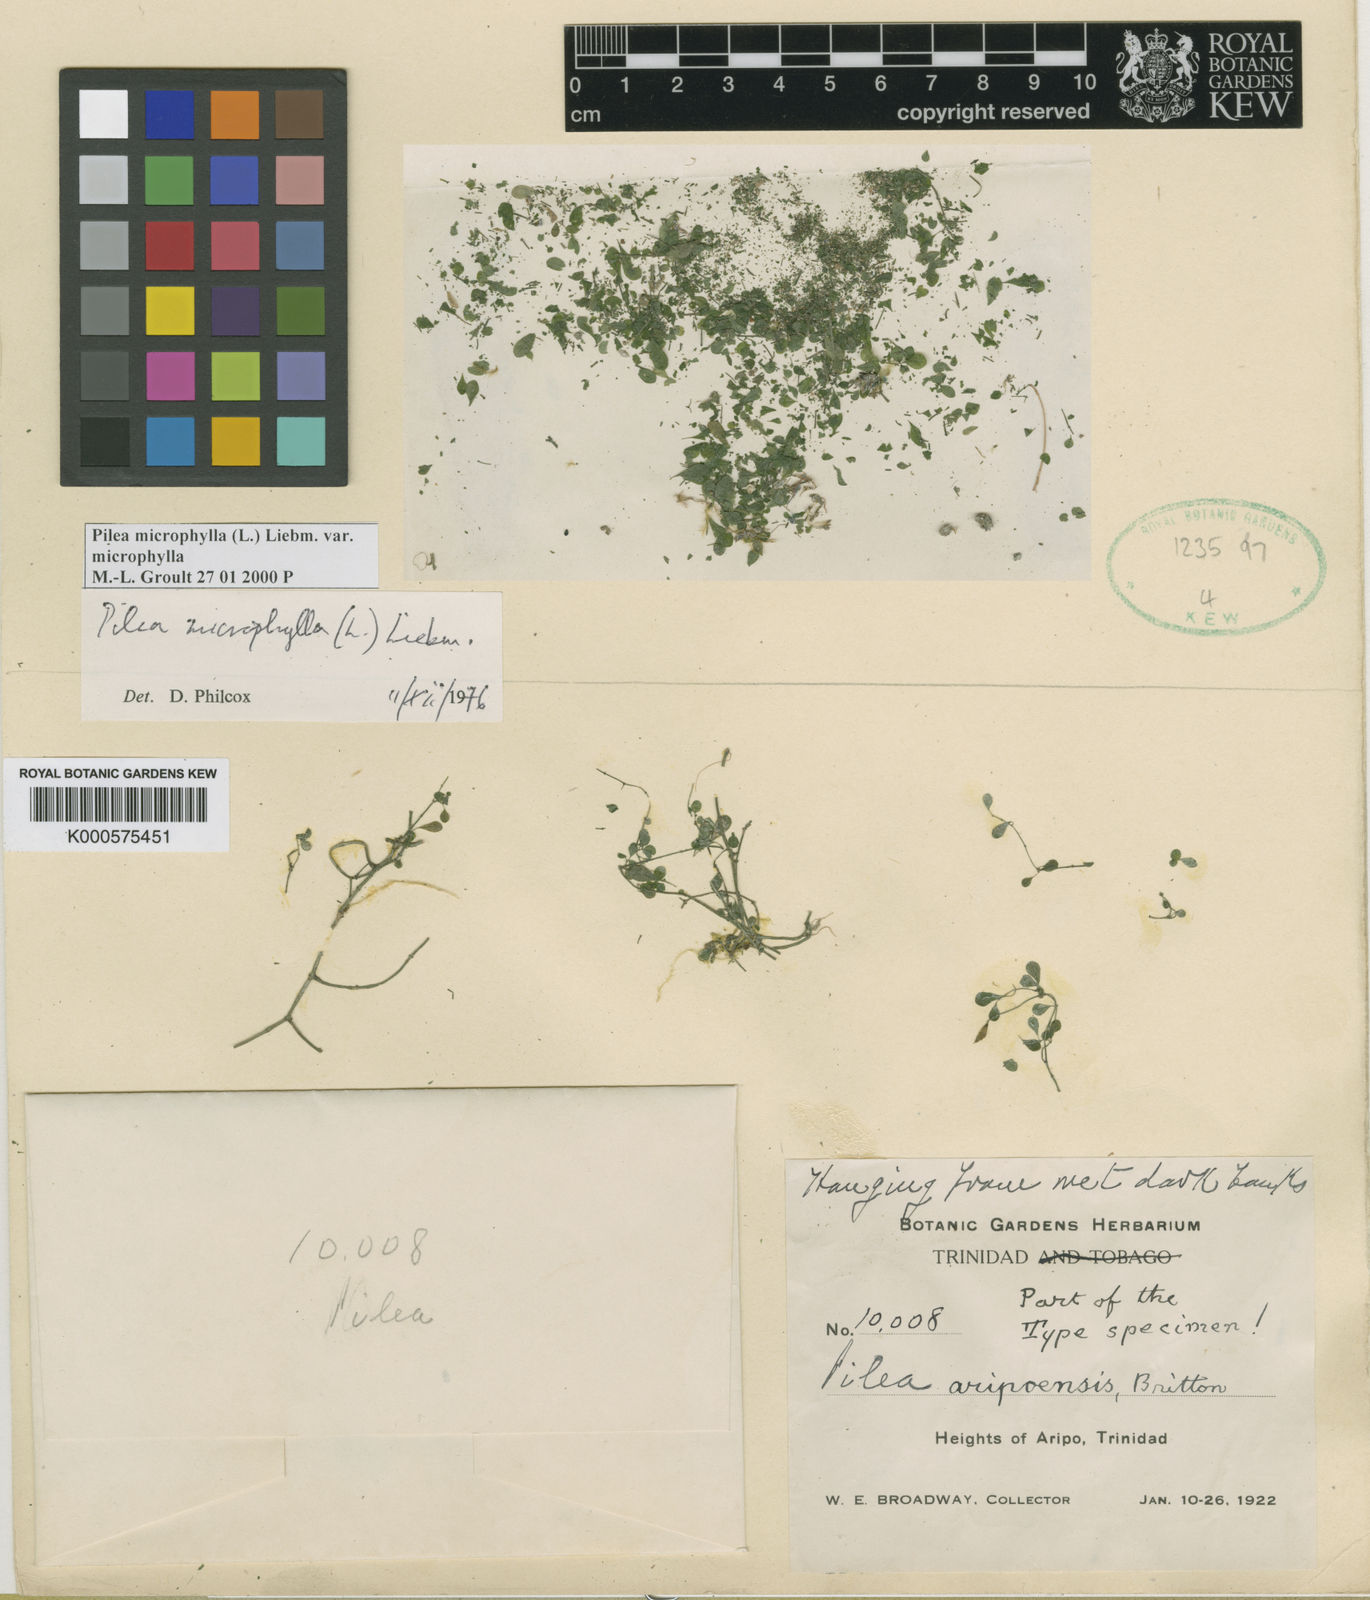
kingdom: Plantae
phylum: Tracheophyta
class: Magnoliopsida
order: Rosales
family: Urticaceae
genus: Pilea
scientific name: Pilea microphylla
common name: Artillery-plant
